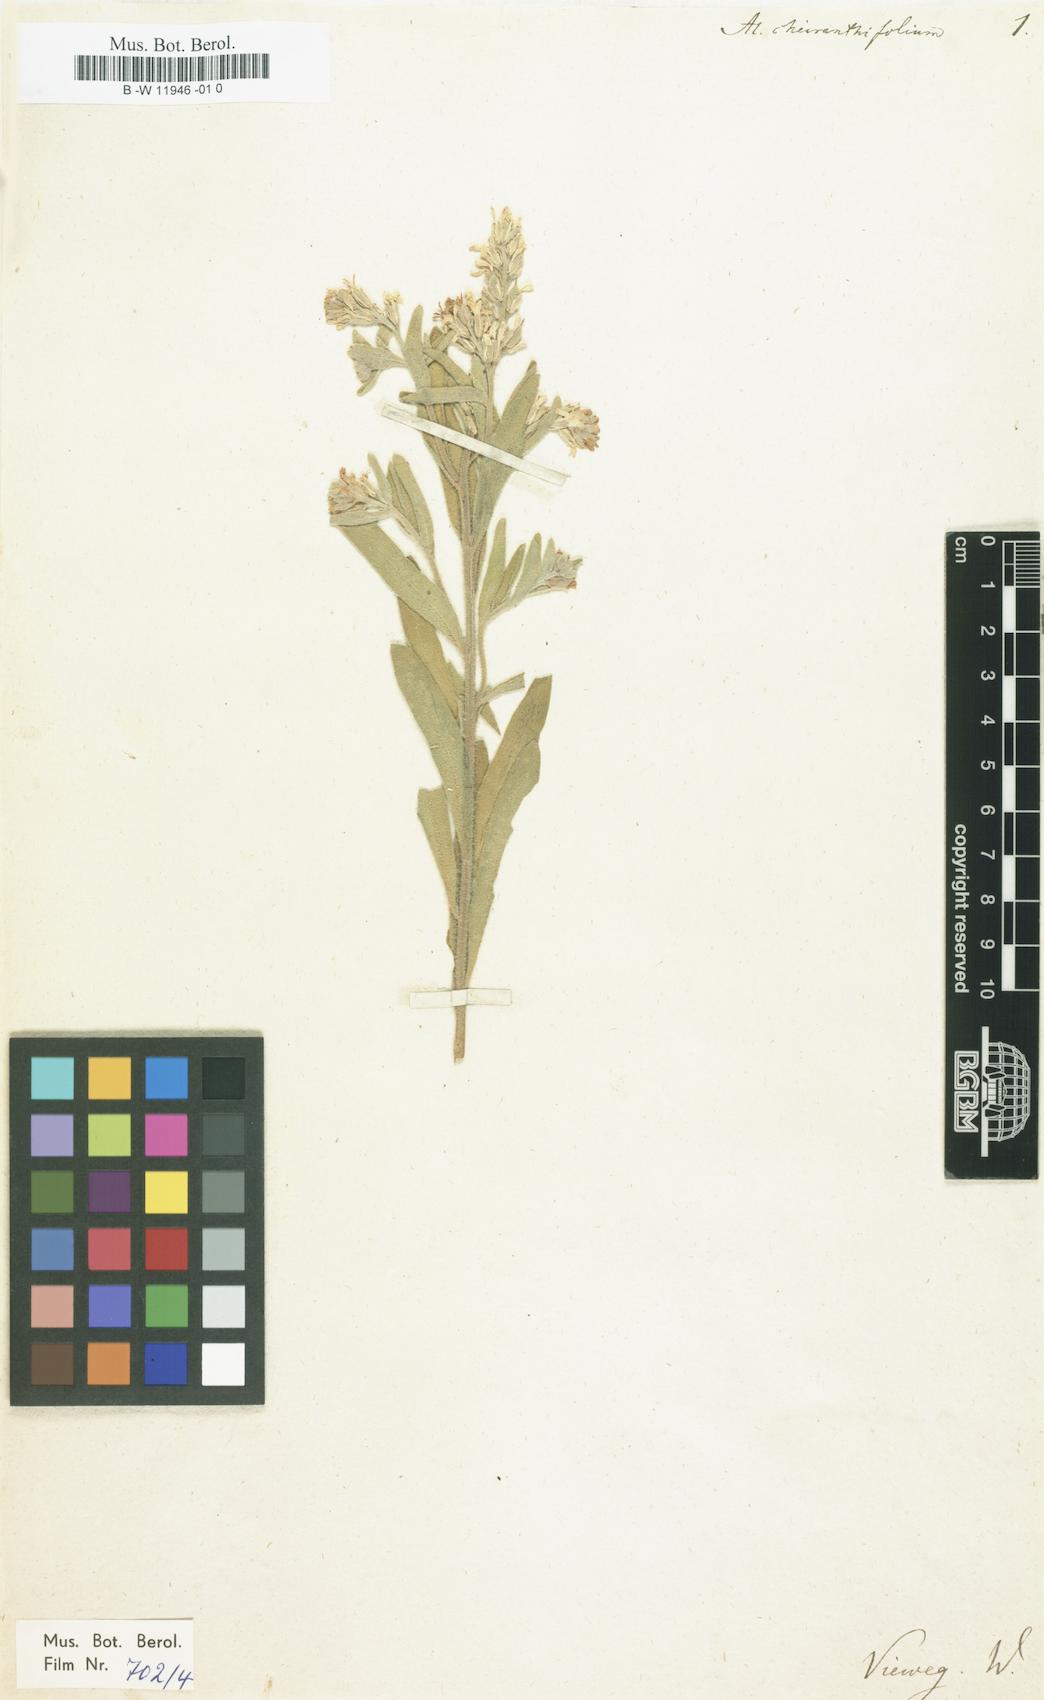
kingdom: Plantae
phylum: Tracheophyta
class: Magnoliopsida
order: Brassicales
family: Brassicaceae
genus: Fibigia
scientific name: Fibigia clypeata
